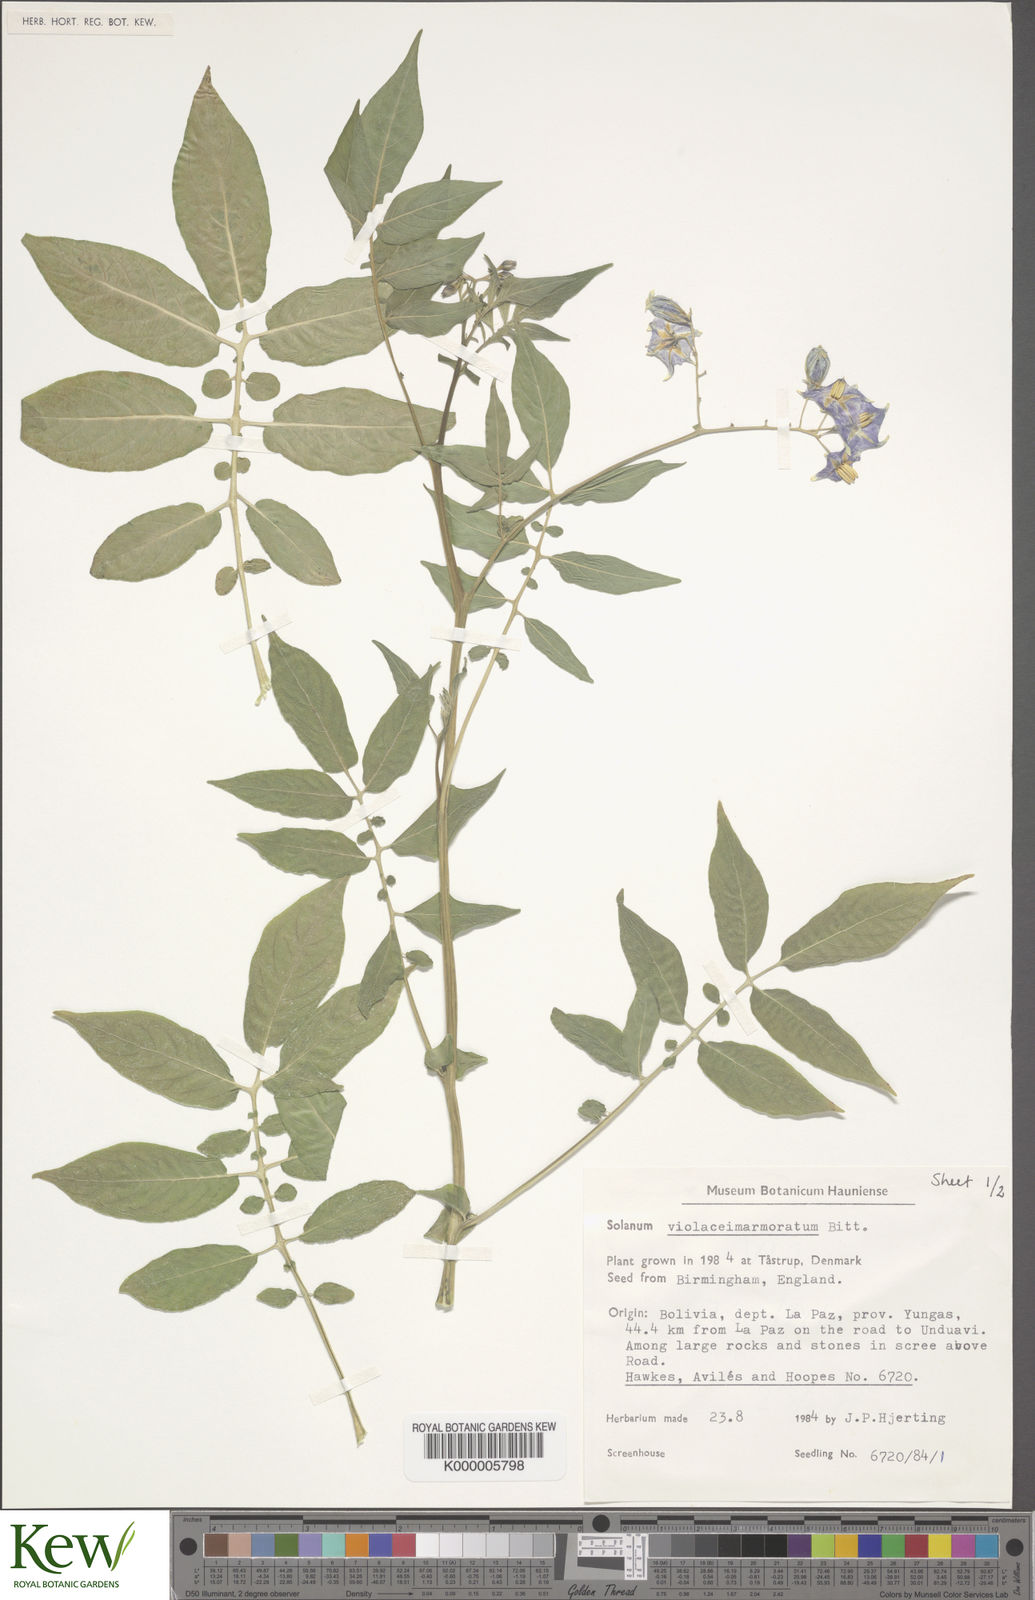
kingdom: Plantae
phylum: Tracheophyta
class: Magnoliopsida
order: Solanales
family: Solanaceae
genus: Solanum
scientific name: Solanum violaceimarmoratum
